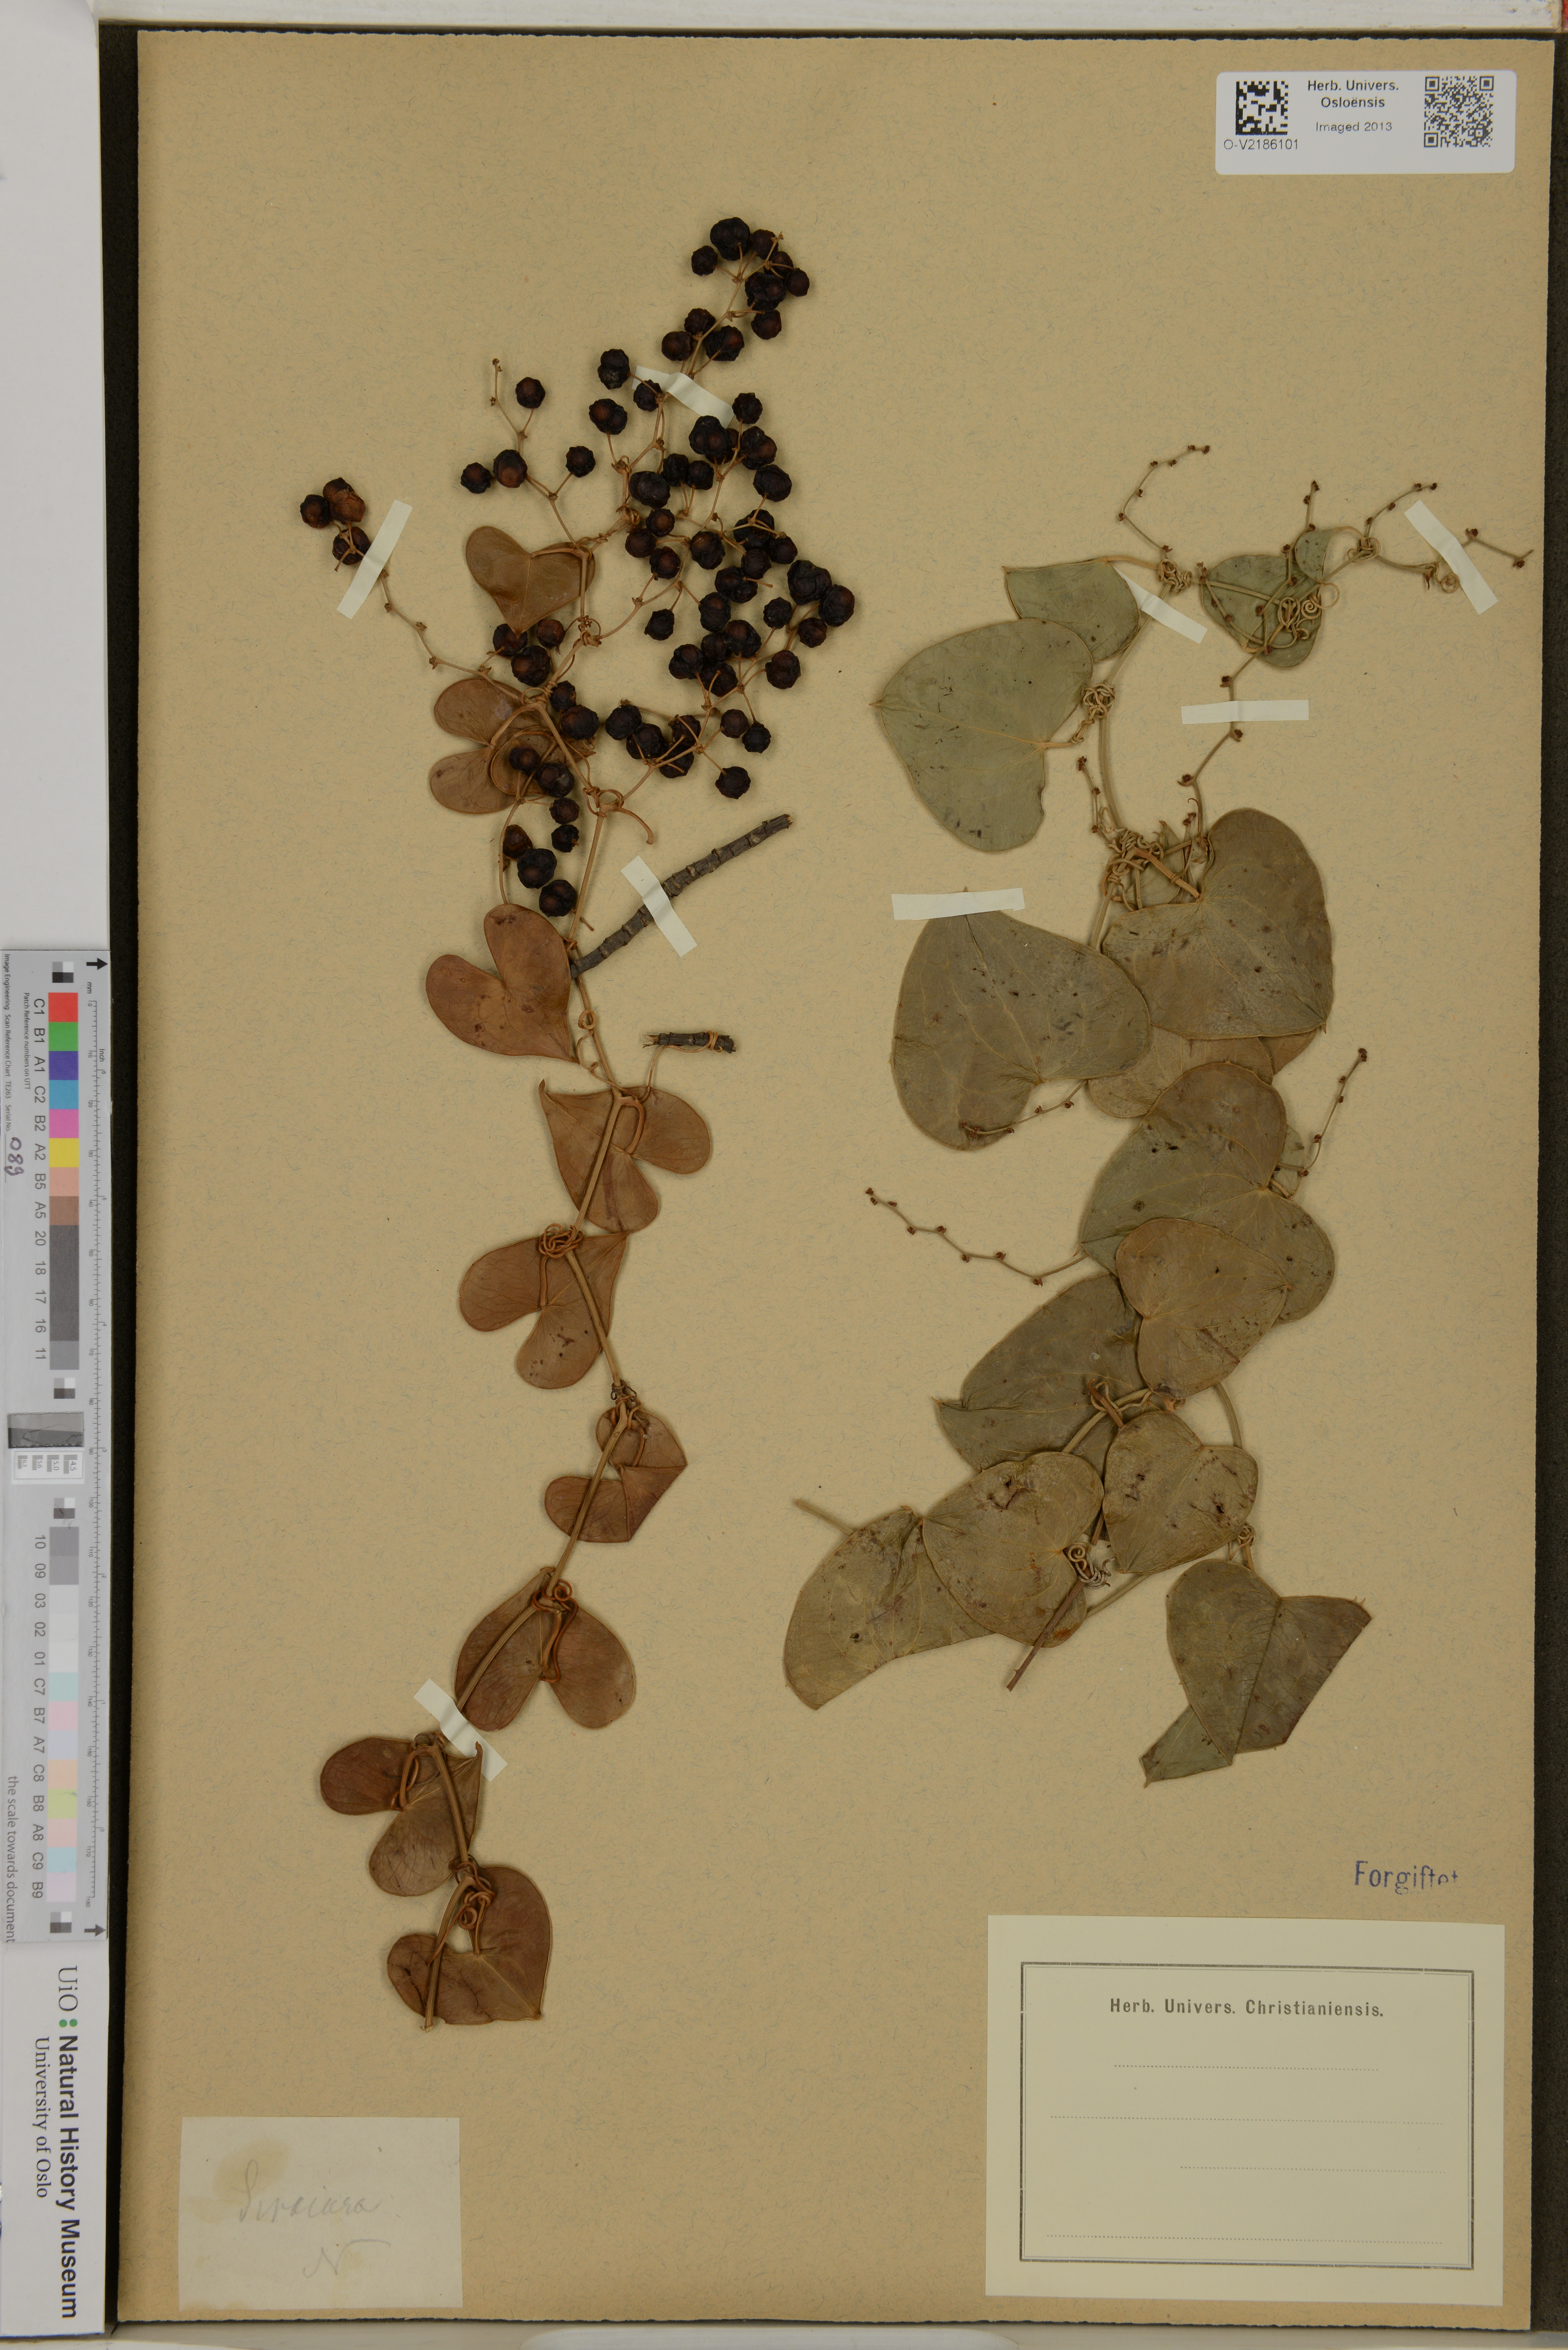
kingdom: Plantae
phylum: Tracheophyta
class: Liliopsida
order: Liliales
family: Smilacaceae
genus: Smilax
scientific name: Smilax
